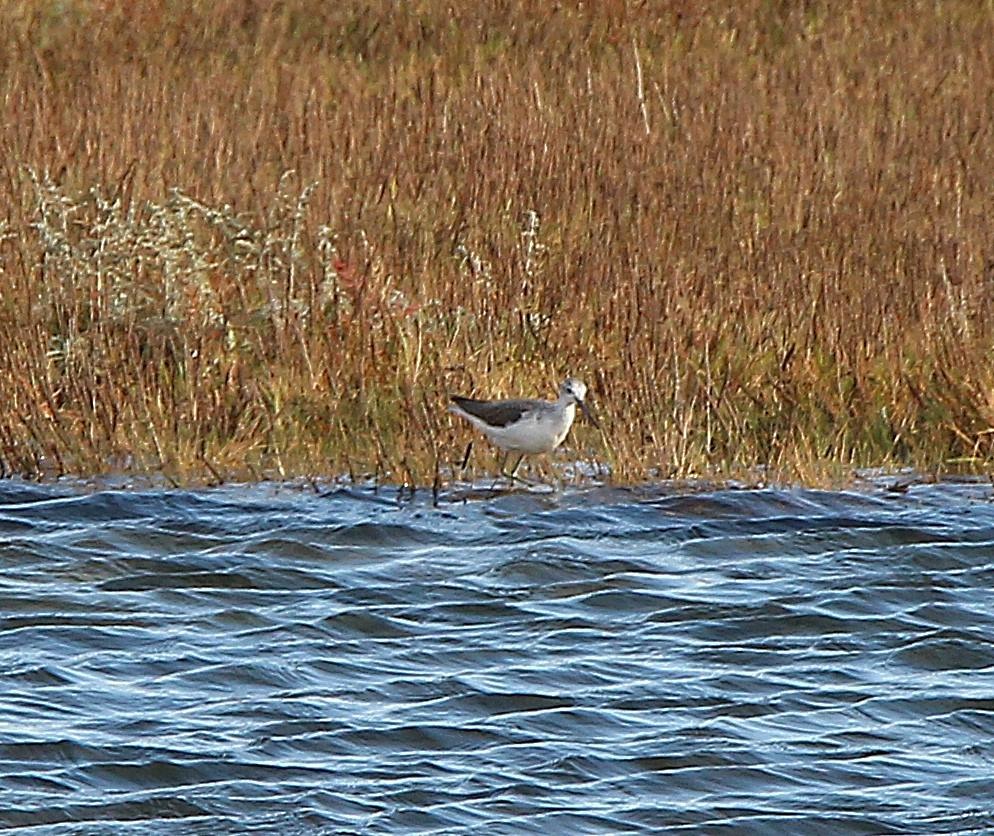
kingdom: Animalia
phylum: Chordata
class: Aves
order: Charadriiformes
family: Scolopacidae
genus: Tringa
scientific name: Tringa nebularia
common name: Hvidklire
